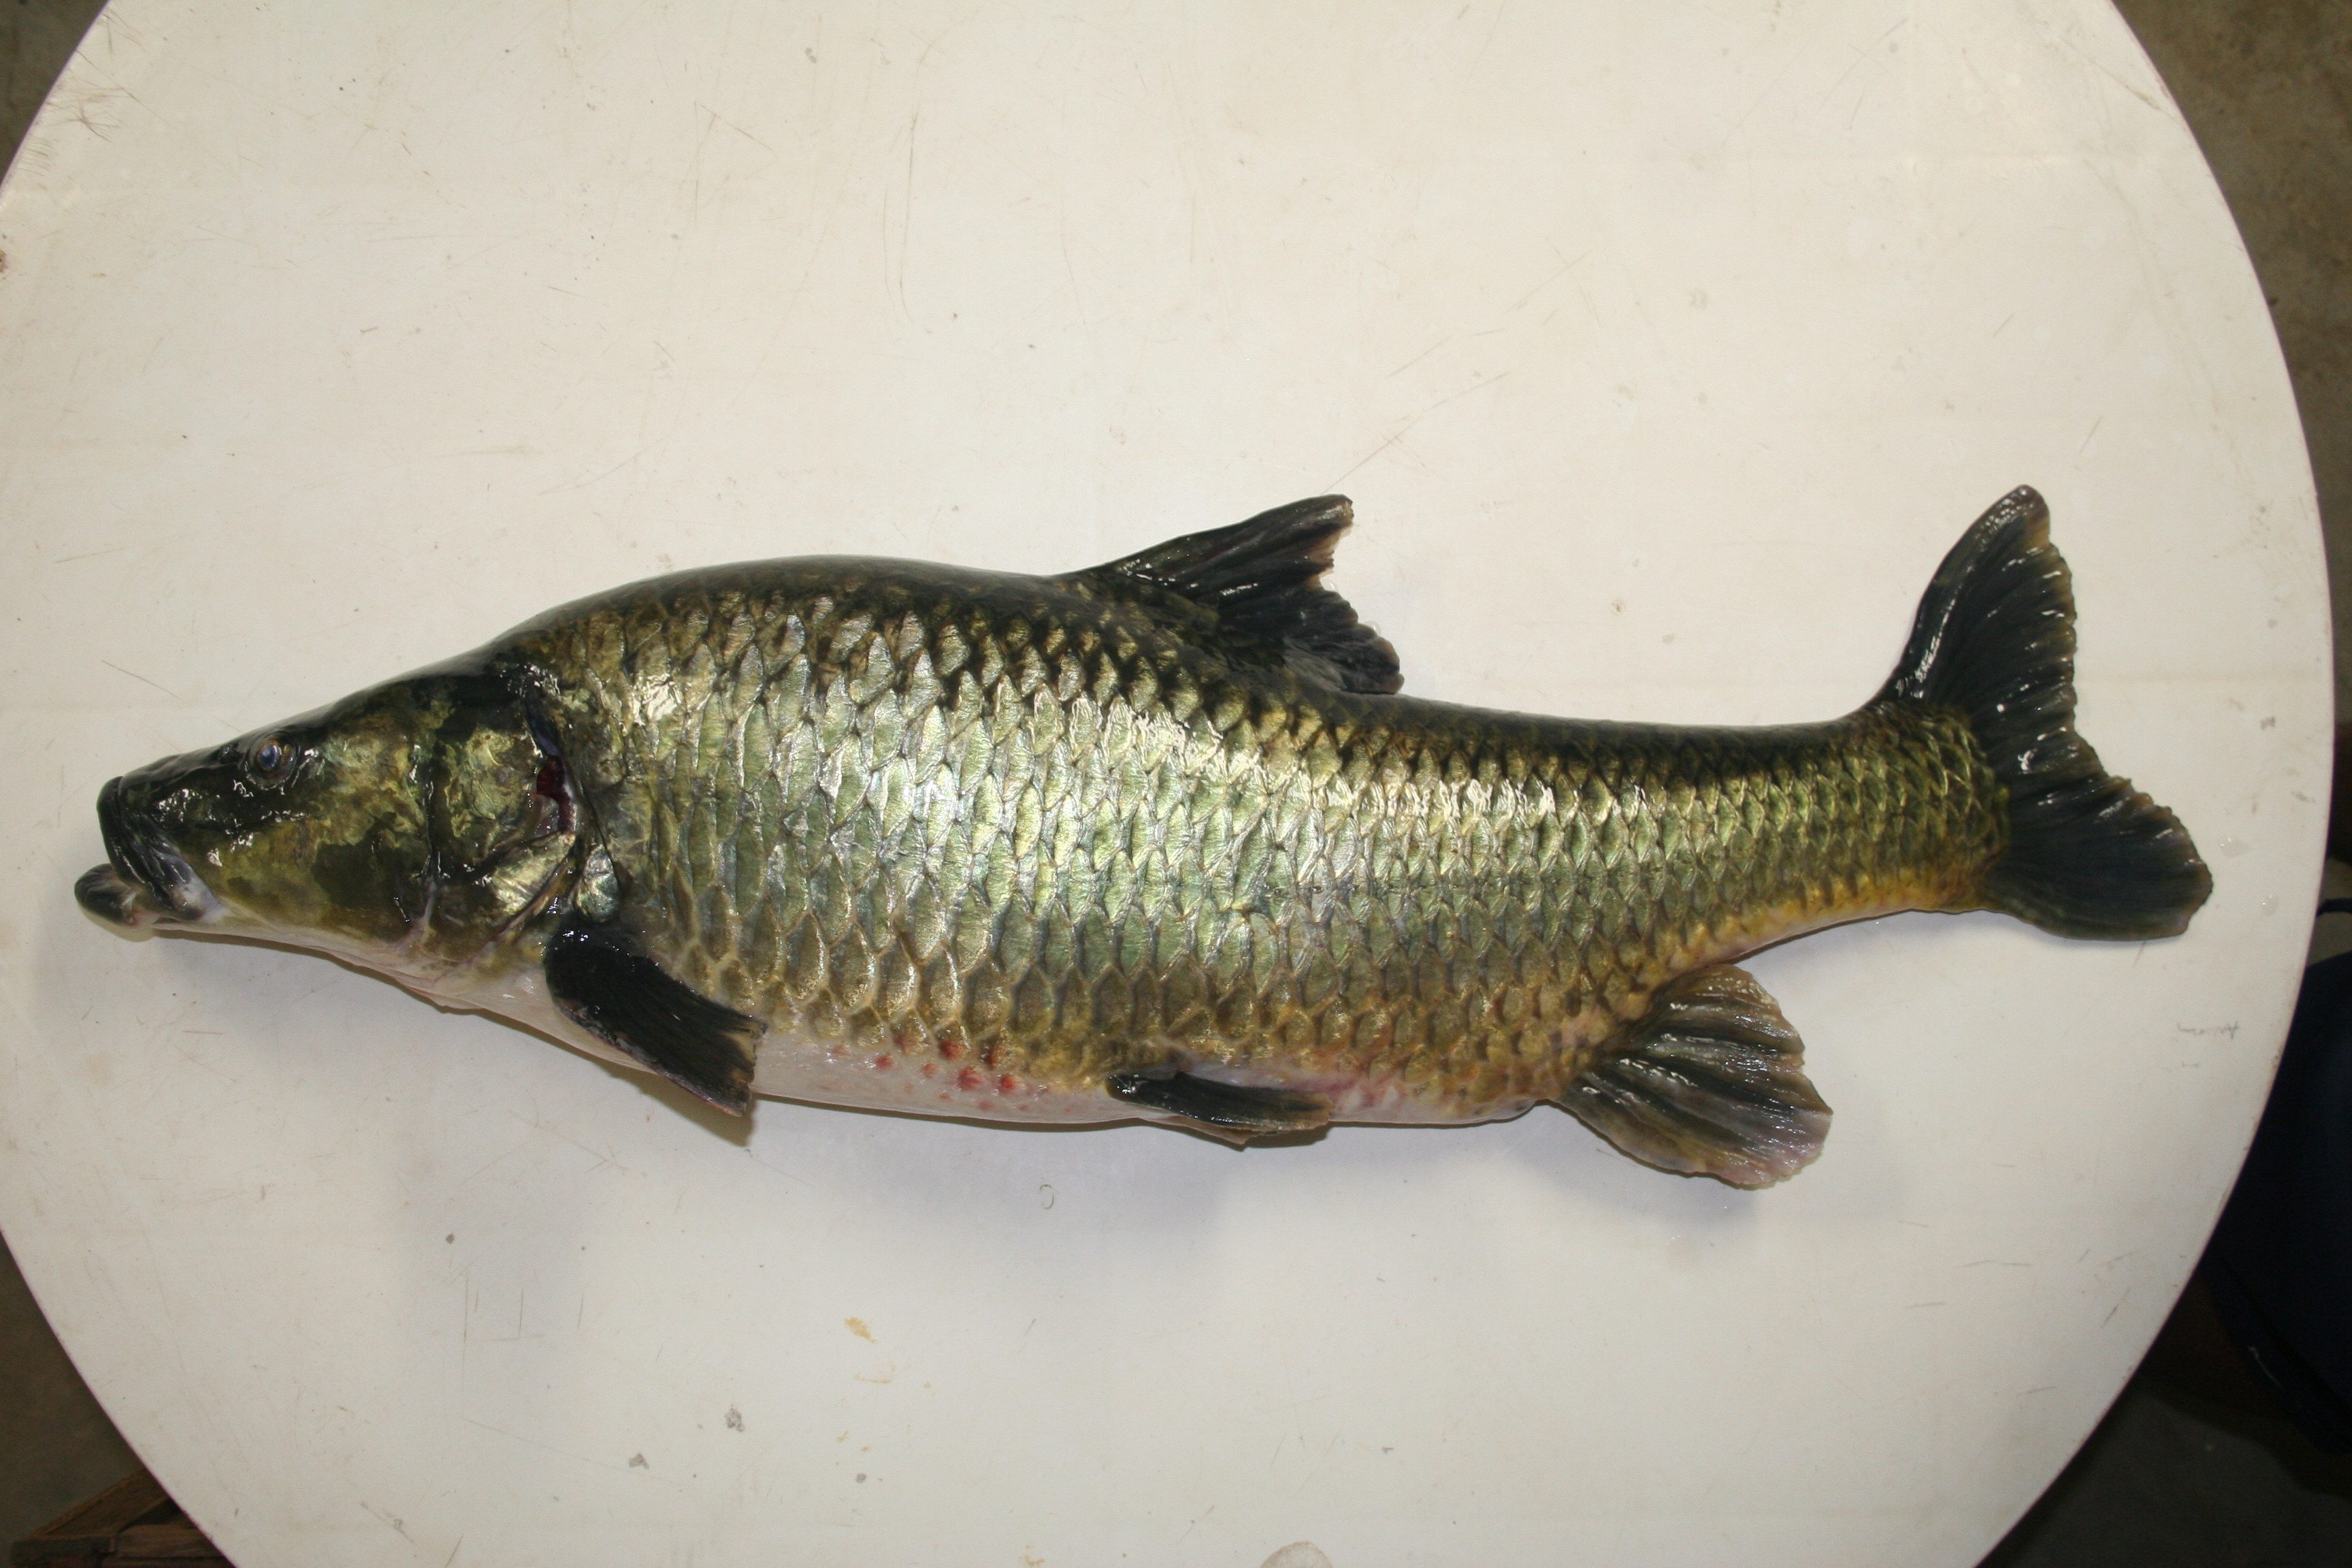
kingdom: Animalia
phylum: Chordata
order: Cypriniformes
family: Cyprinidae
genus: Labeobarbus
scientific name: Labeobarbus
